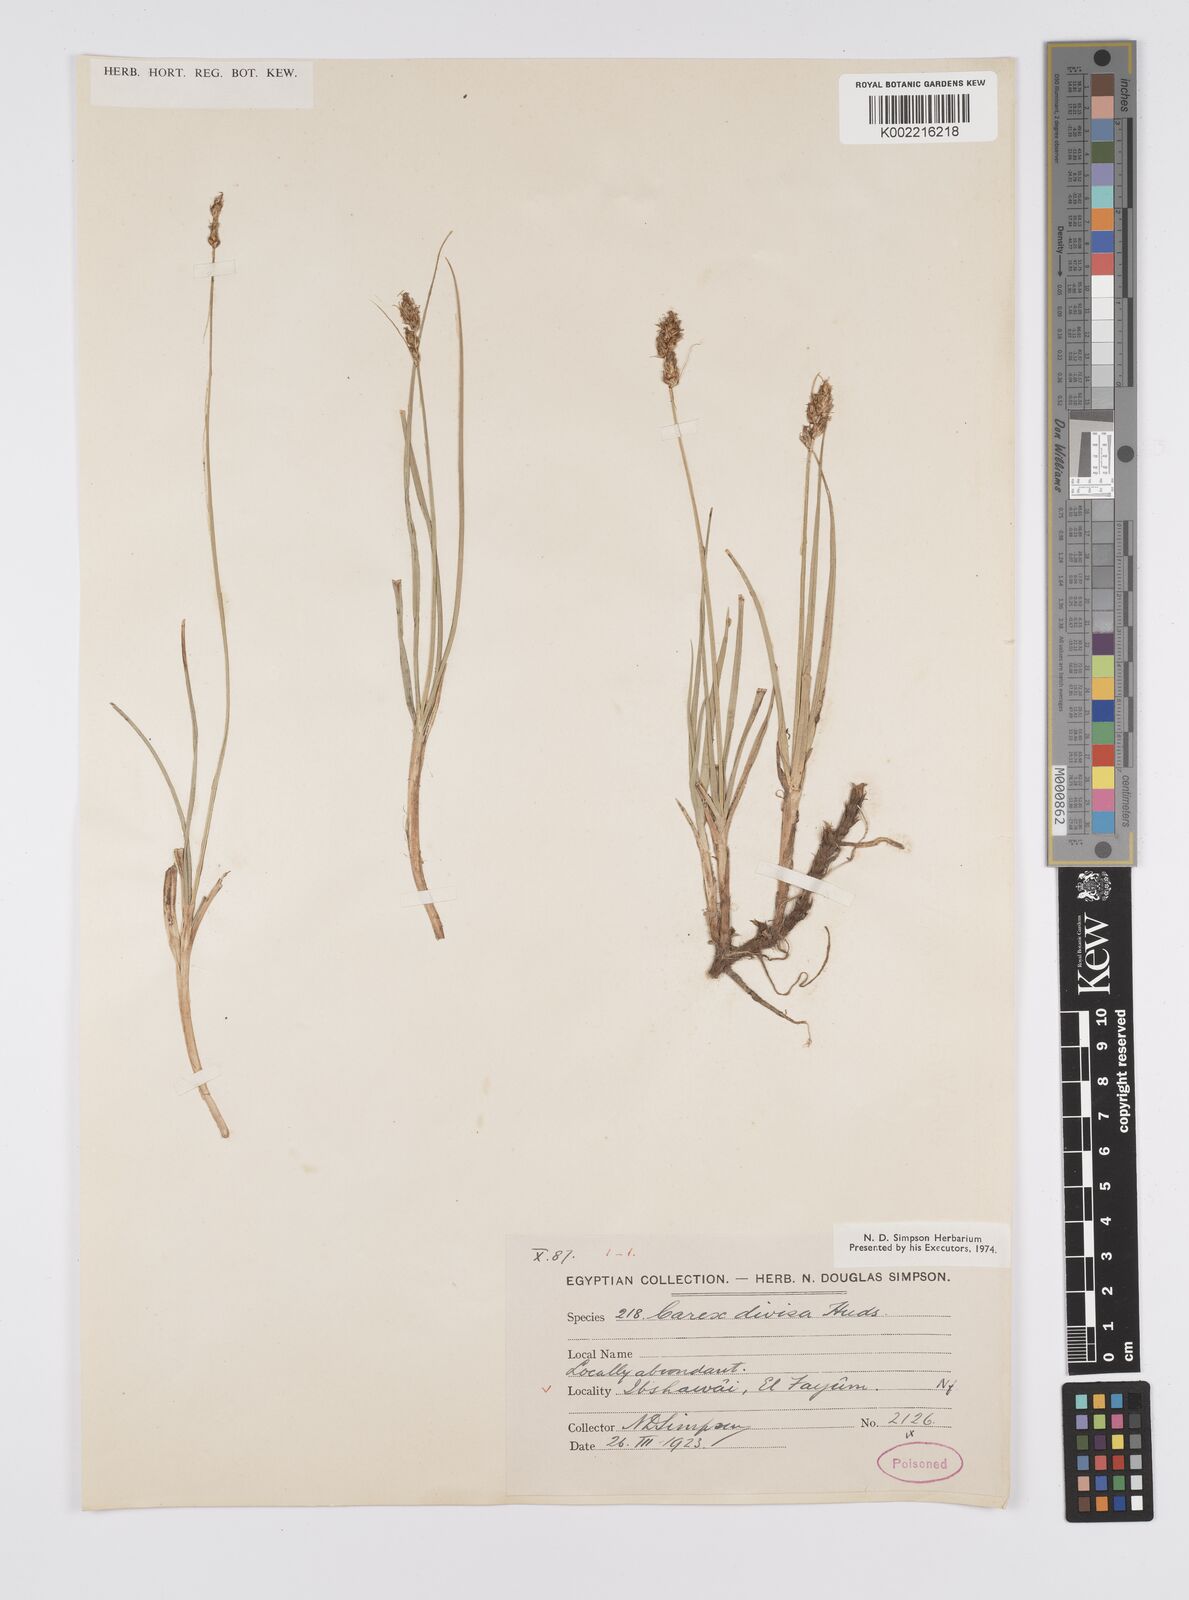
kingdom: Plantae
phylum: Tracheophyta
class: Liliopsida
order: Poales
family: Cyperaceae
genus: Carex
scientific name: Carex divisa
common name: Divided sedge
